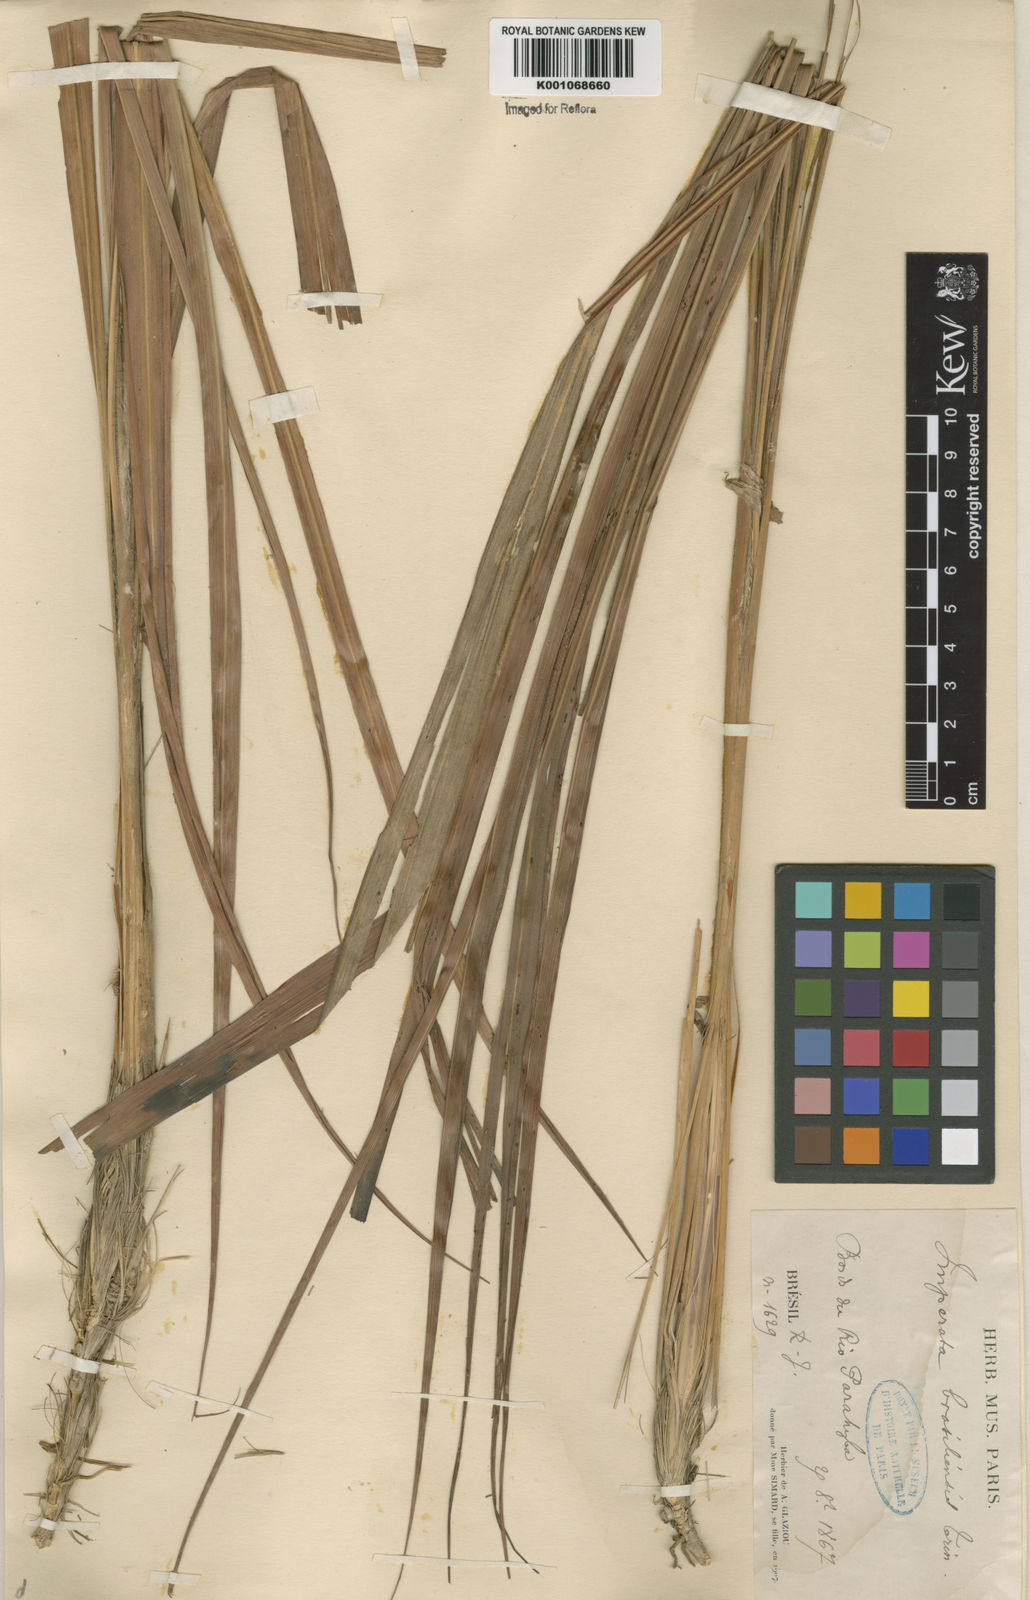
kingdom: Plantae
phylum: Tracheophyta
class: Liliopsida
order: Poales
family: Poaceae
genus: Imperata
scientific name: Imperata contracta
